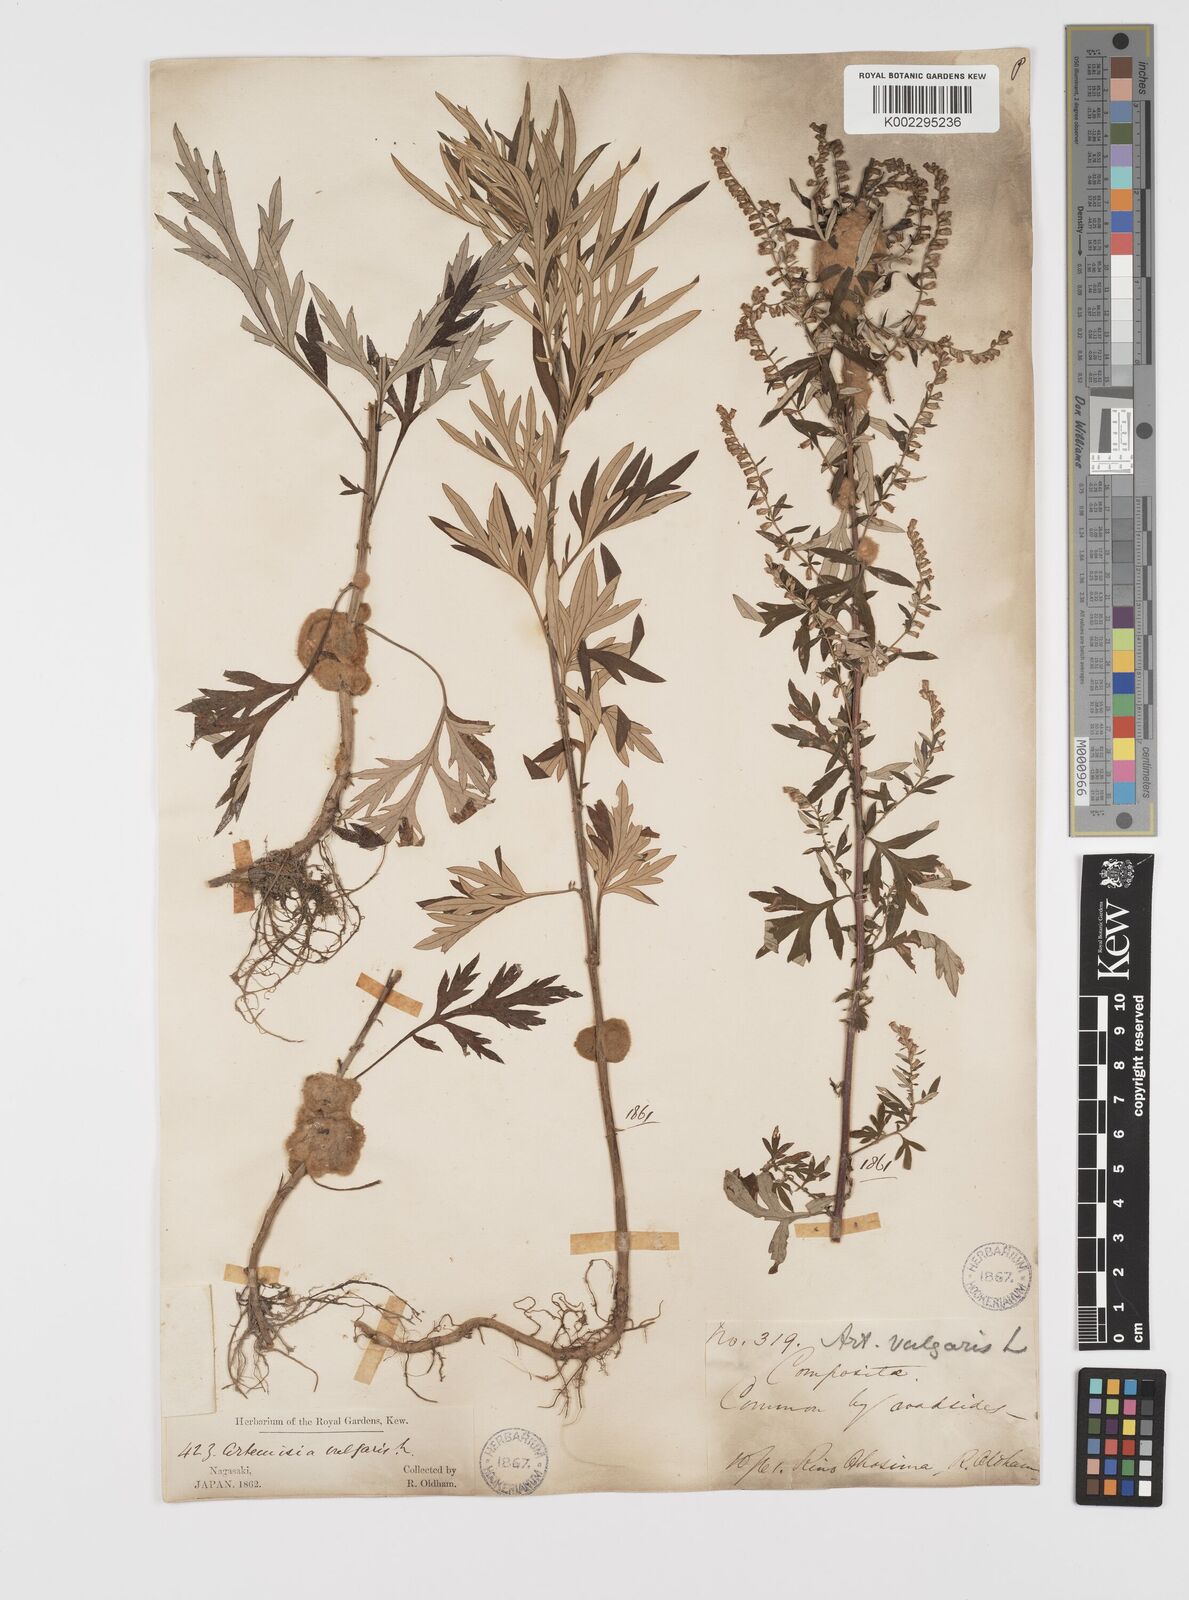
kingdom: Plantae
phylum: Tracheophyta
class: Magnoliopsida
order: Asterales
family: Asteraceae
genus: Artemisia
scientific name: Artemisia
